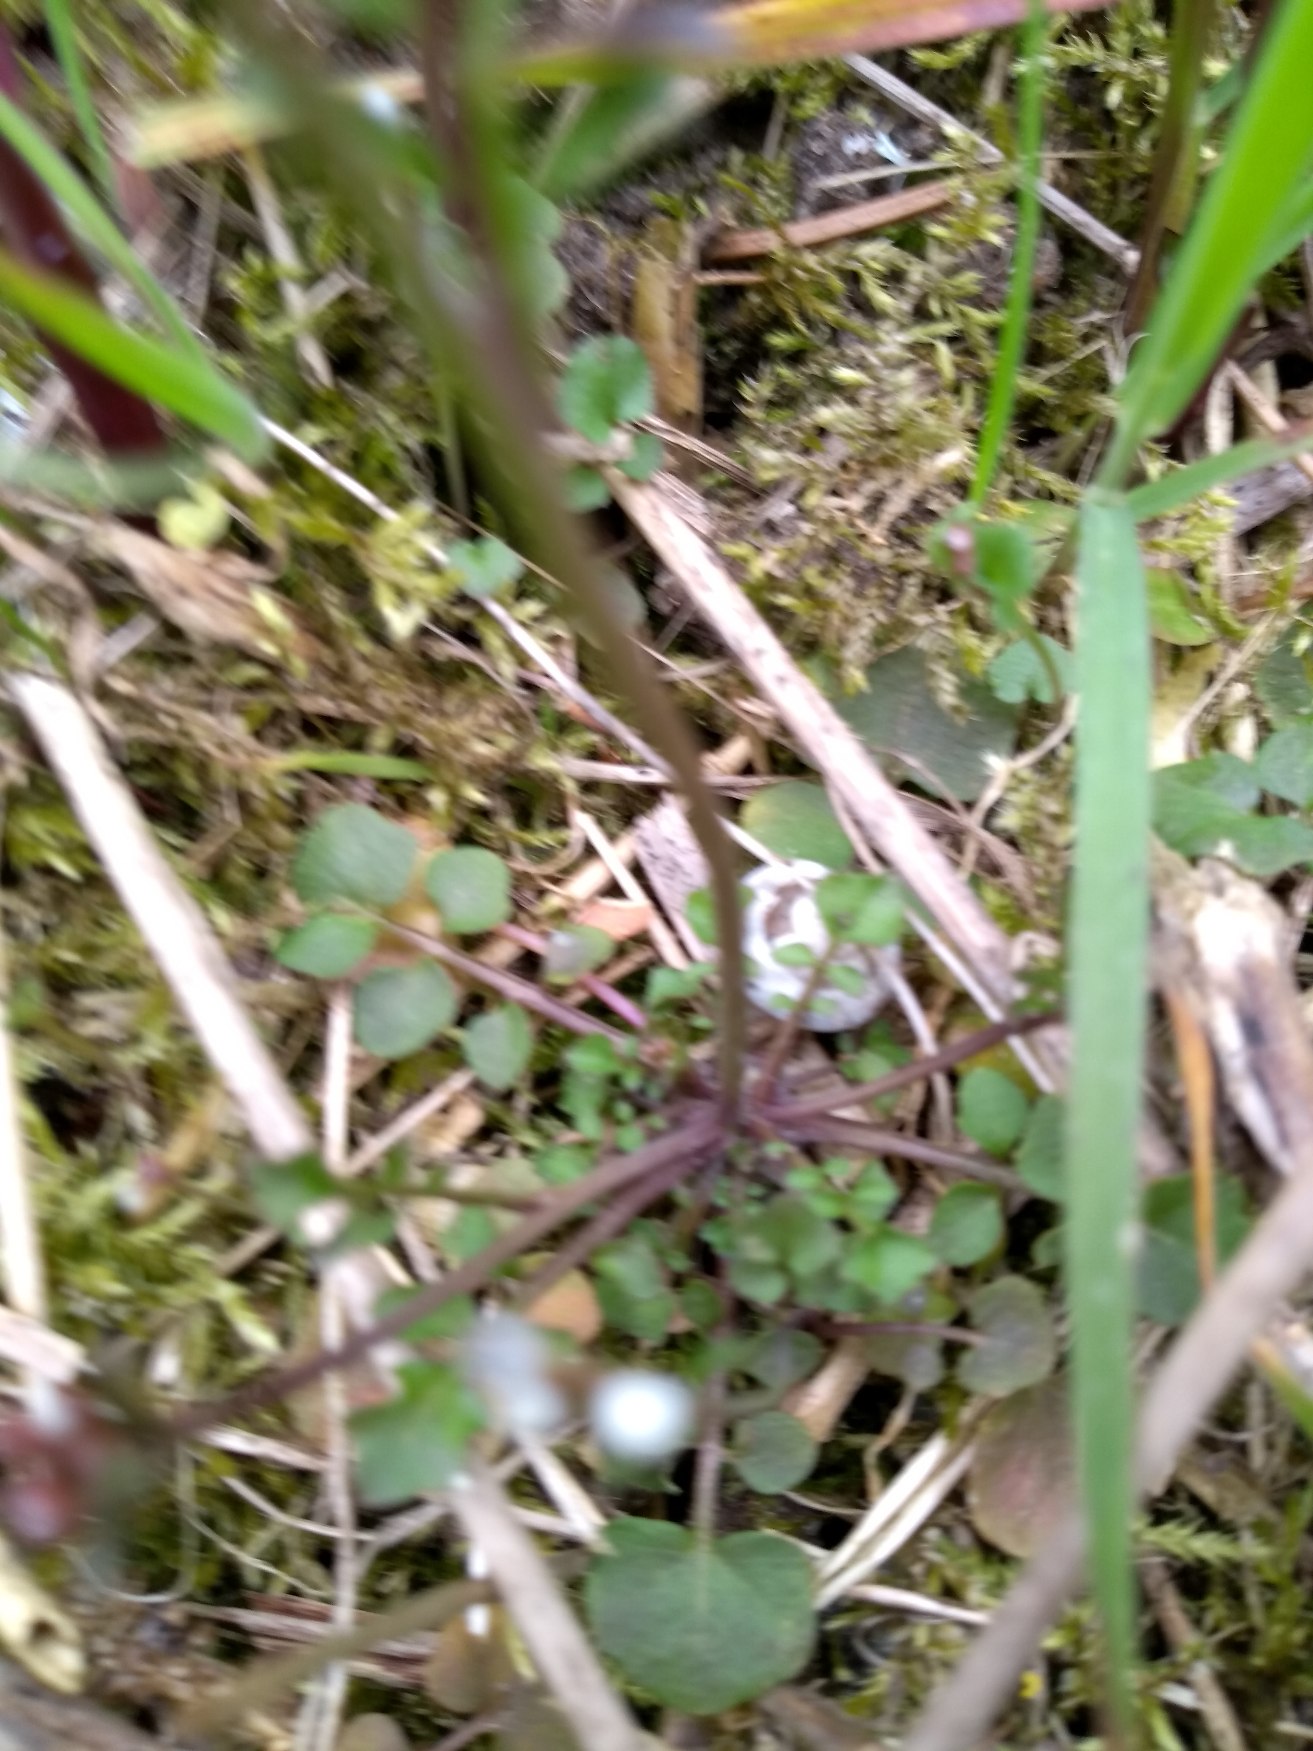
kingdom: Plantae
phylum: Tracheophyta
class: Magnoliopsida
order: Brassicales
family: Brassicaceae
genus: Cardamine
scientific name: Cardamine hirsuta
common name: Roset-springklap
